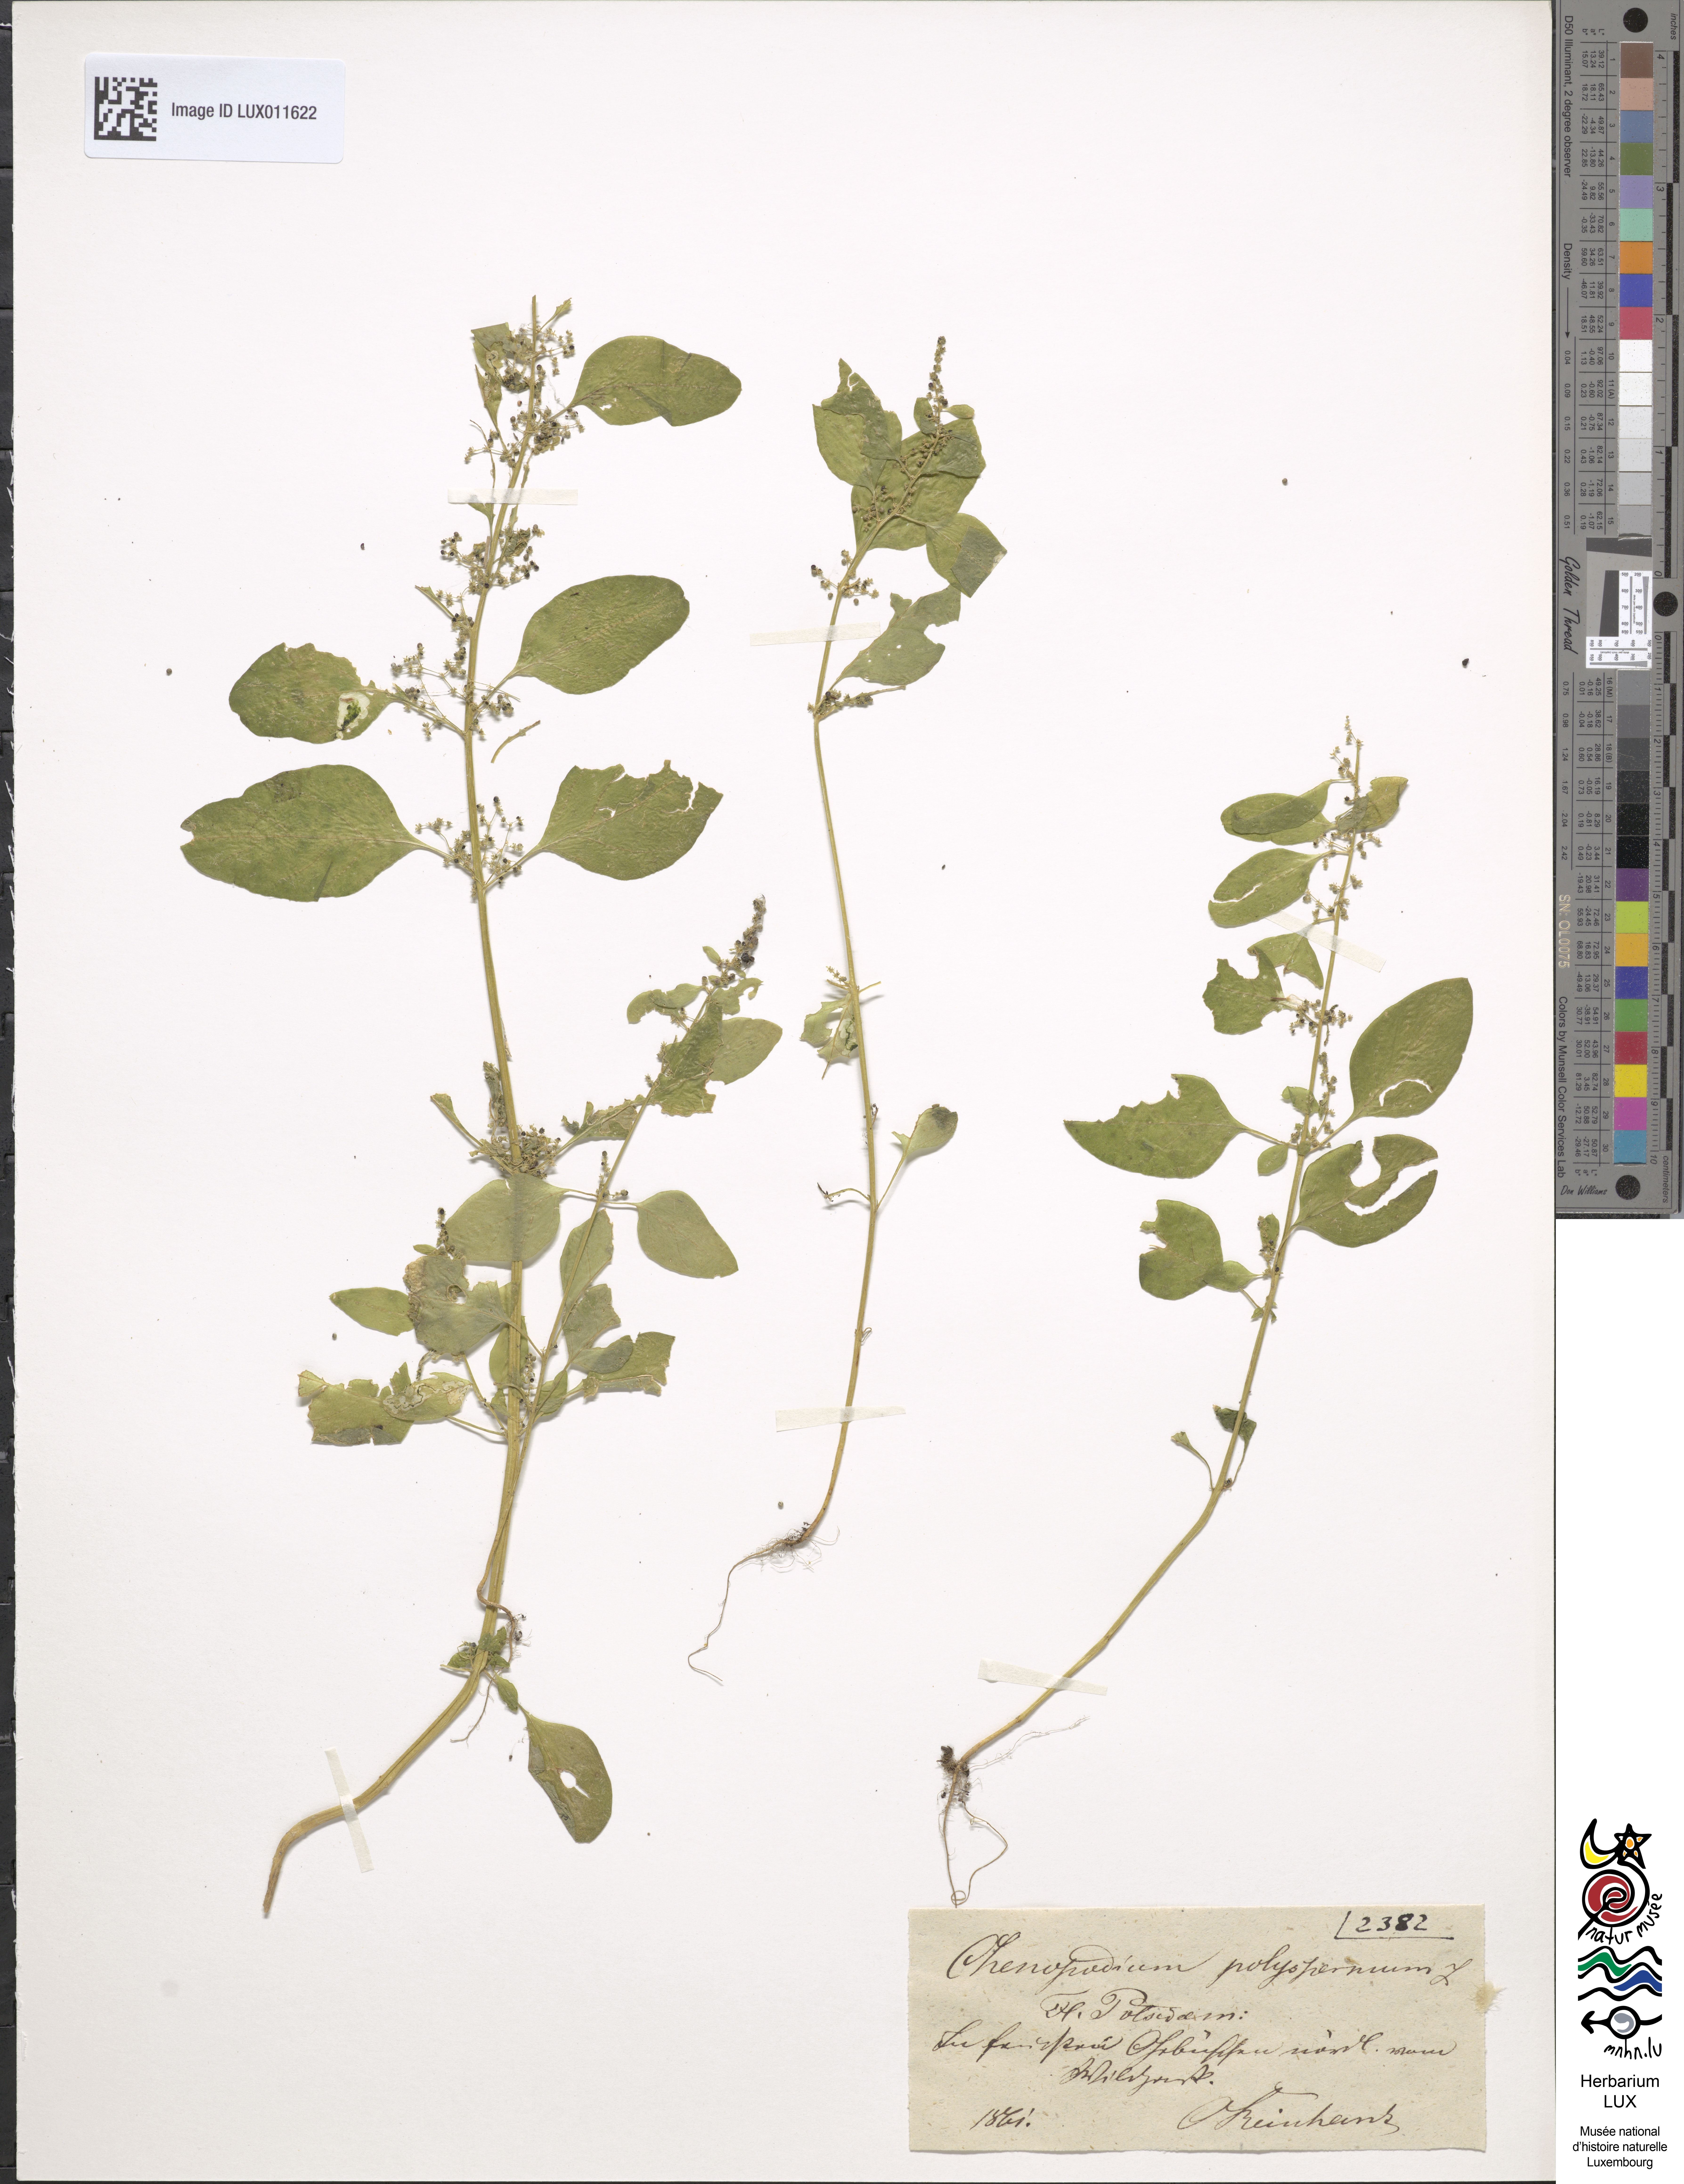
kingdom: Plantae
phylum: Tracheophyta
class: Magnoliopsida
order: Caryophyllales
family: Amaranthaceae
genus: Lipandra
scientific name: Lipandra polysperma
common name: Many-seed goosefoot
